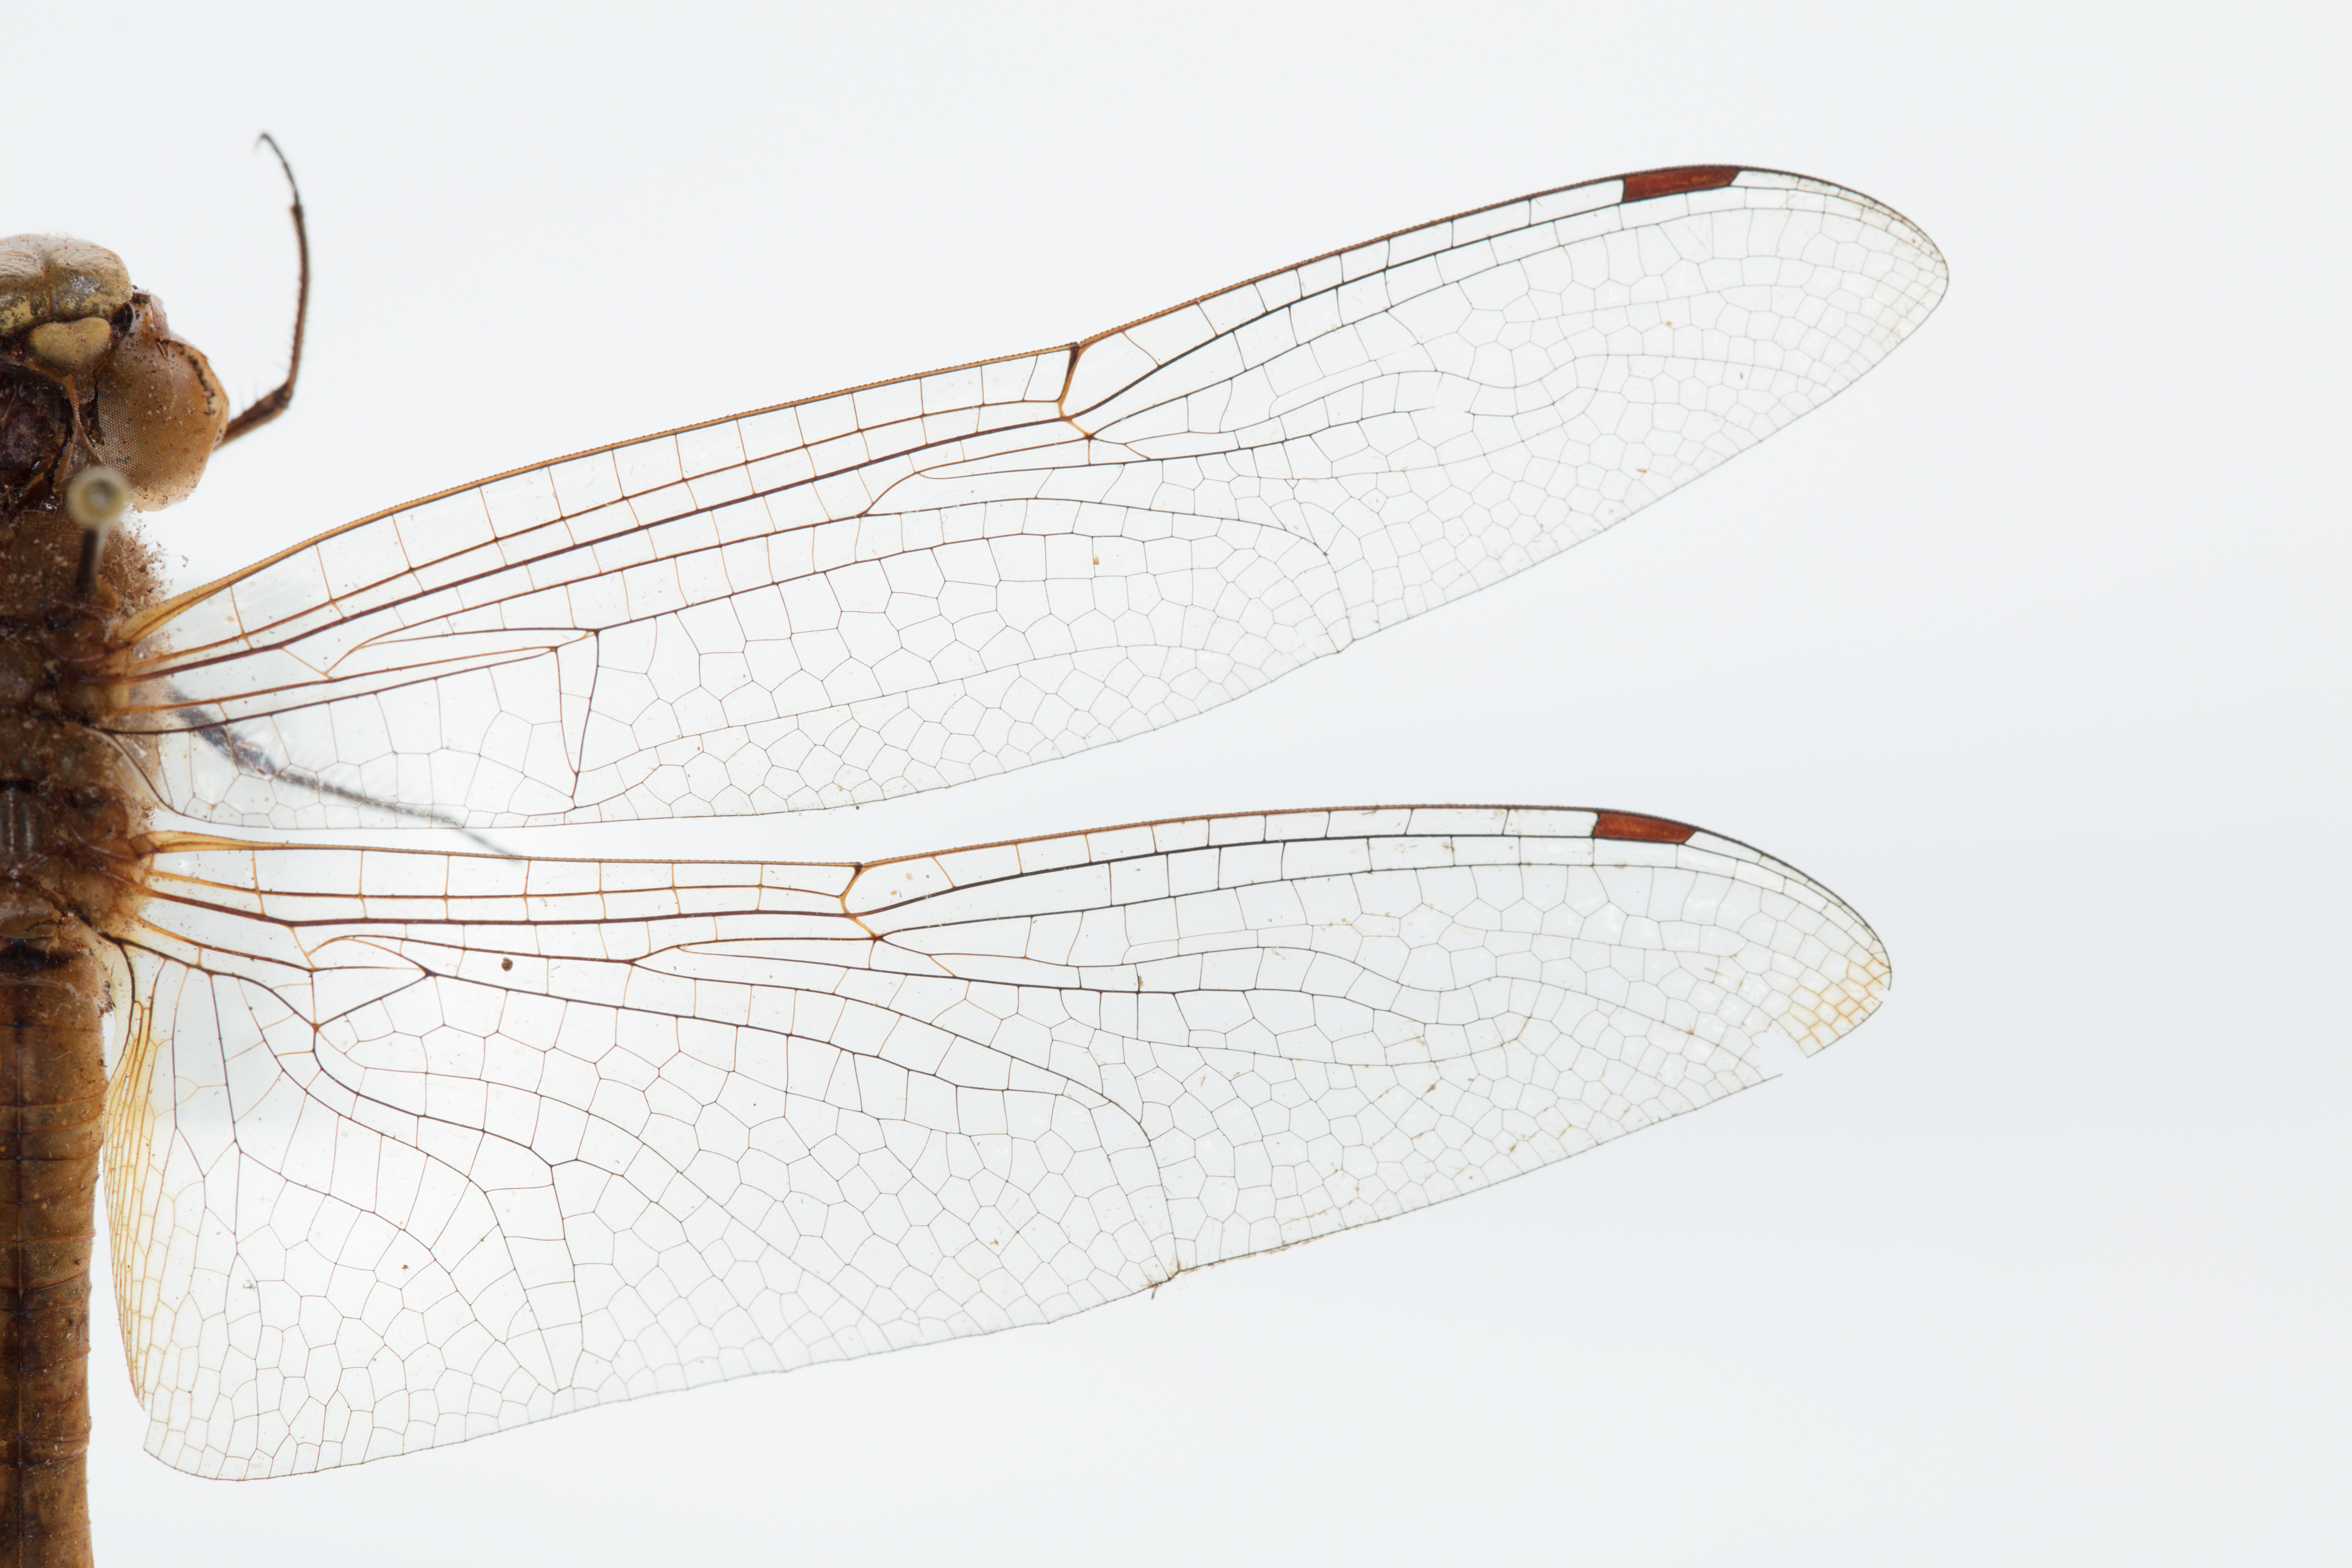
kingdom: Animalia
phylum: Arthropoda
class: Insecta
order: Odonata
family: Libellulidae
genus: Pantala
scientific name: Pantala flavescens
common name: Wandering glider
